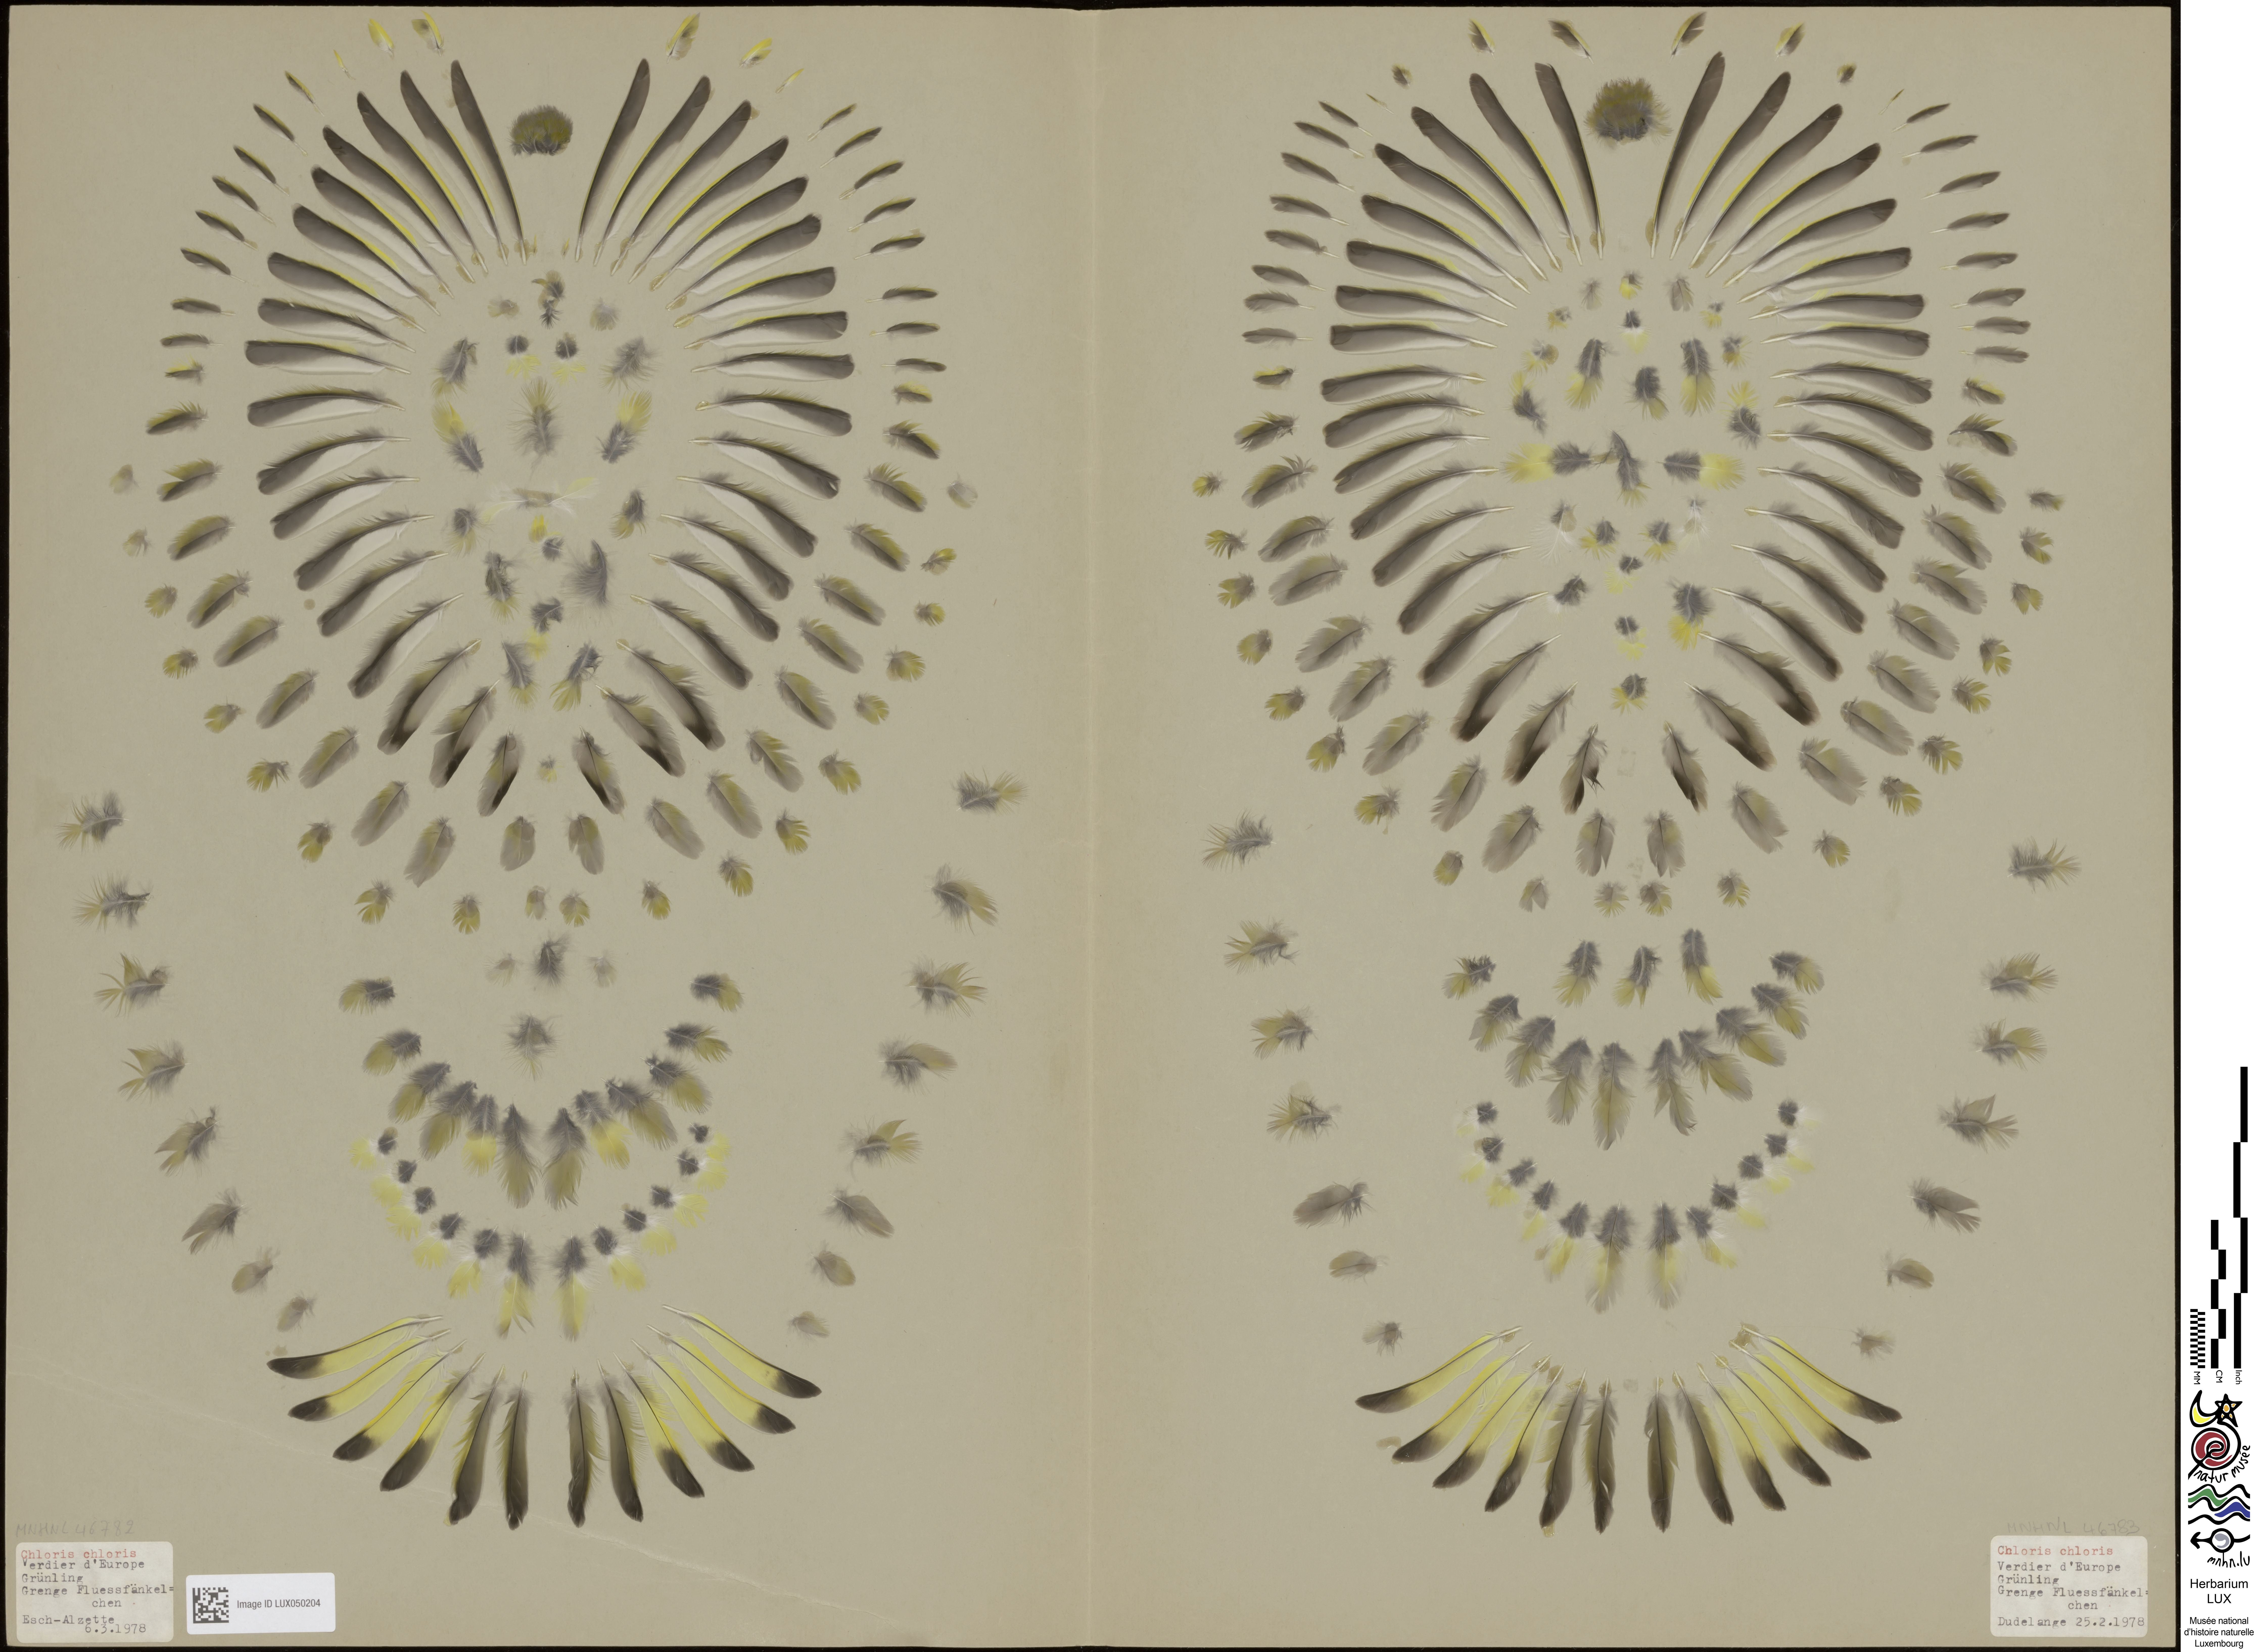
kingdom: Plantae
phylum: Tracheophyta
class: Liliopsida
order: Poales
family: Poaceae
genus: Chloris
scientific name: Chloris chloris
